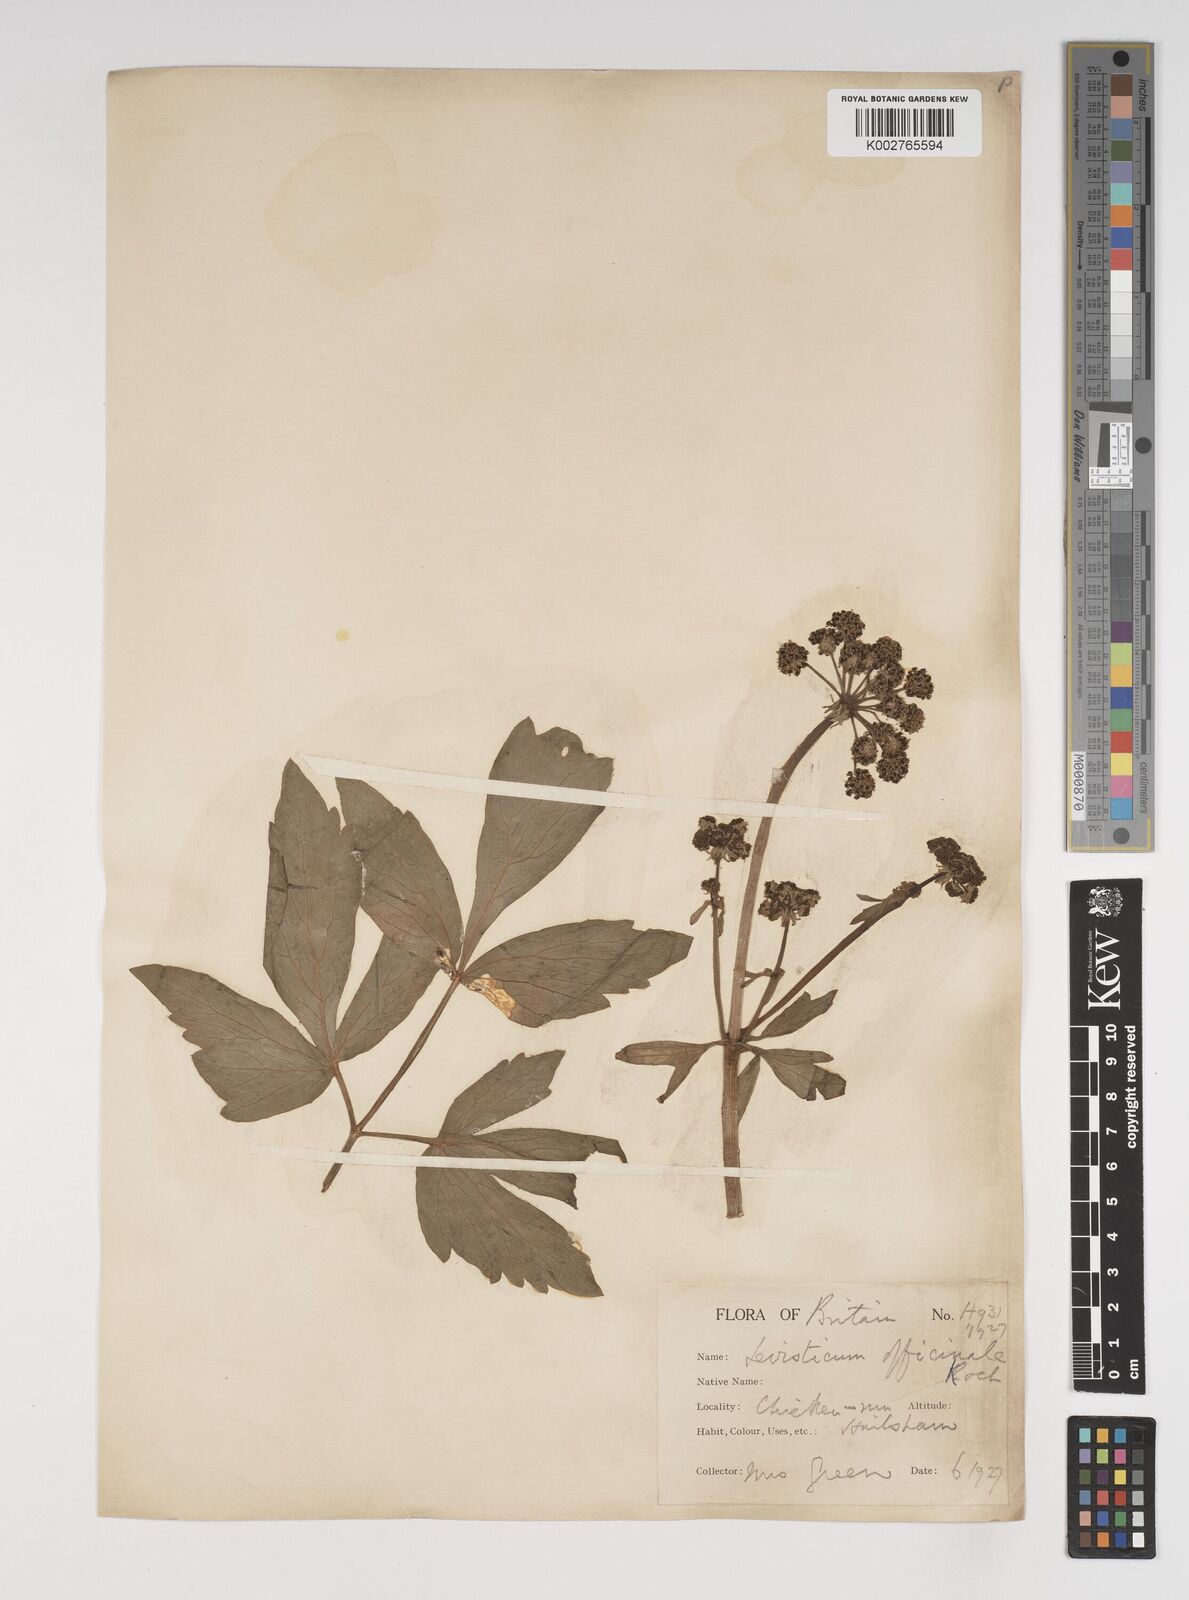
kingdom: Plantae
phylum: Tracheophyta
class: Magnoliopsida
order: Apiales
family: Apiaceae
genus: Levisticum
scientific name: Levisticum officinale
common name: Lovage
